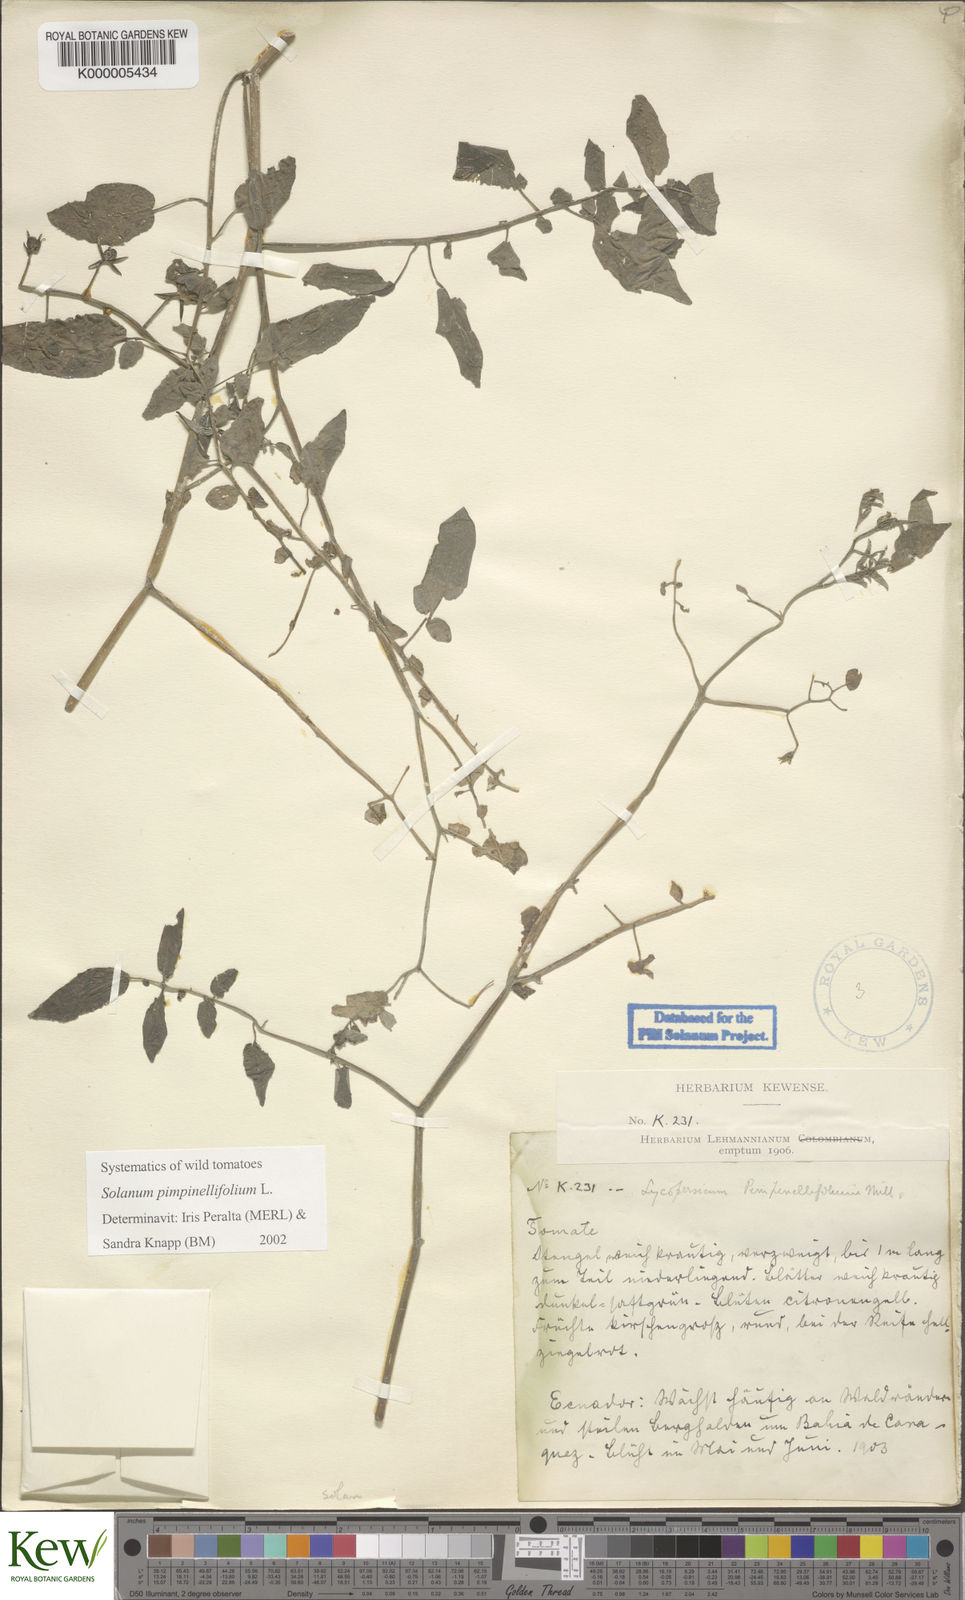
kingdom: Plantae
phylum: Tracheophyta
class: Magnoliopsida
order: Solanales
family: Solanaceae
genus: Solanum
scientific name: Solanum pimpinellifolium
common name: Currant-tomato
